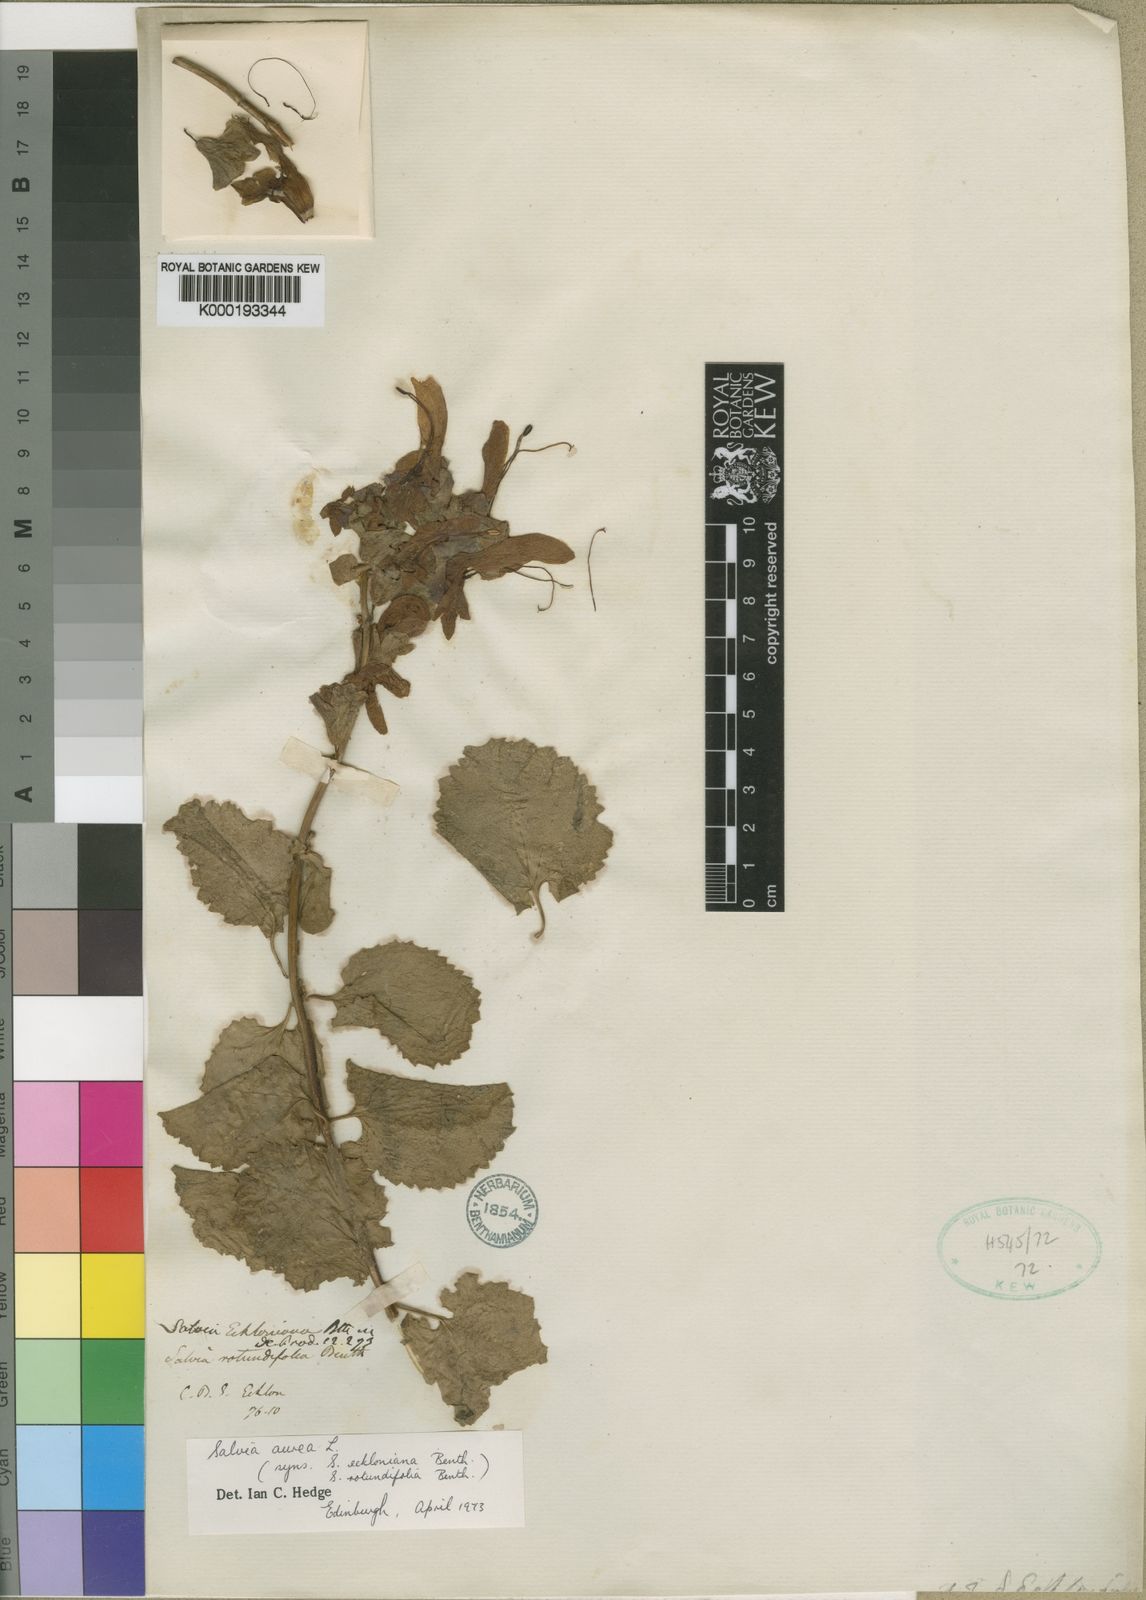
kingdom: Plantae
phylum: Tracheophyta
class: Magnoliopsida
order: Lamiales
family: Lamiaceae
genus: Salvia
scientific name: Salvia aurea
